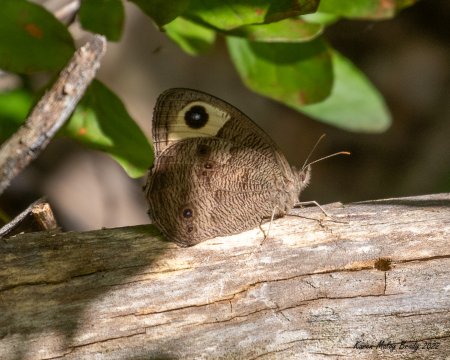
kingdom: Animalia
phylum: Arthropoda
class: Insecta
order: Lepidoptera
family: Nymphalidae
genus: Cercyonis
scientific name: Cercyonis pegala
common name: Common Wood-Nymph
